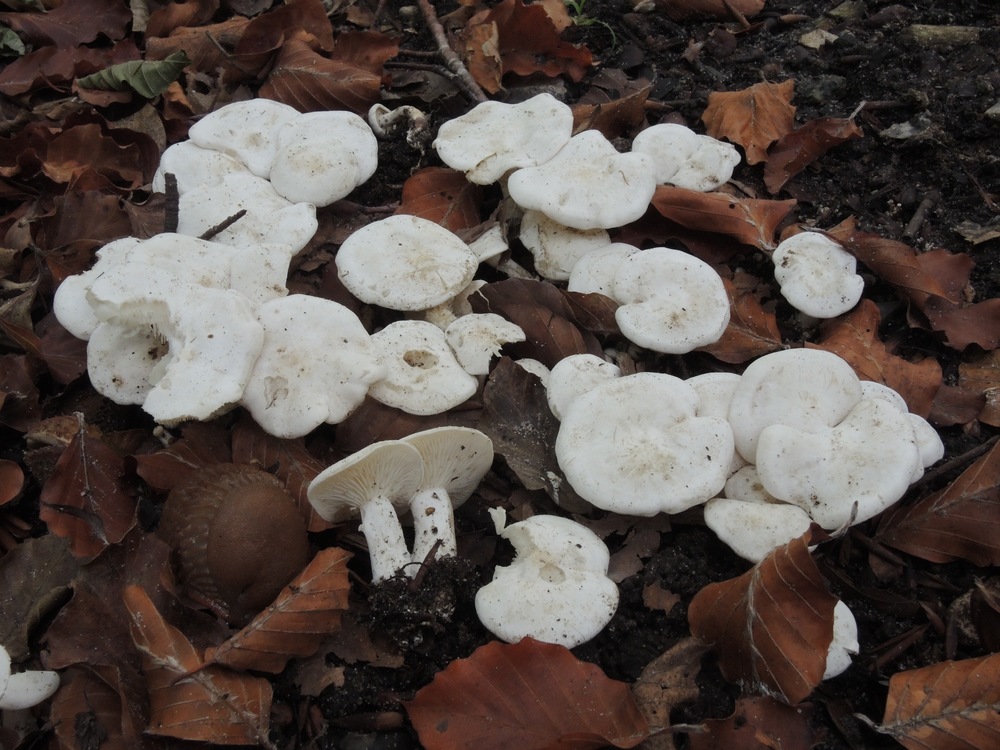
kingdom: Fungi
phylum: Basidiomycota
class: Agaricomycetes
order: Agaricales
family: Tricholomataceae
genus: Leucocybe
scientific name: Leucocybe connata
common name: knippe-tragthat
